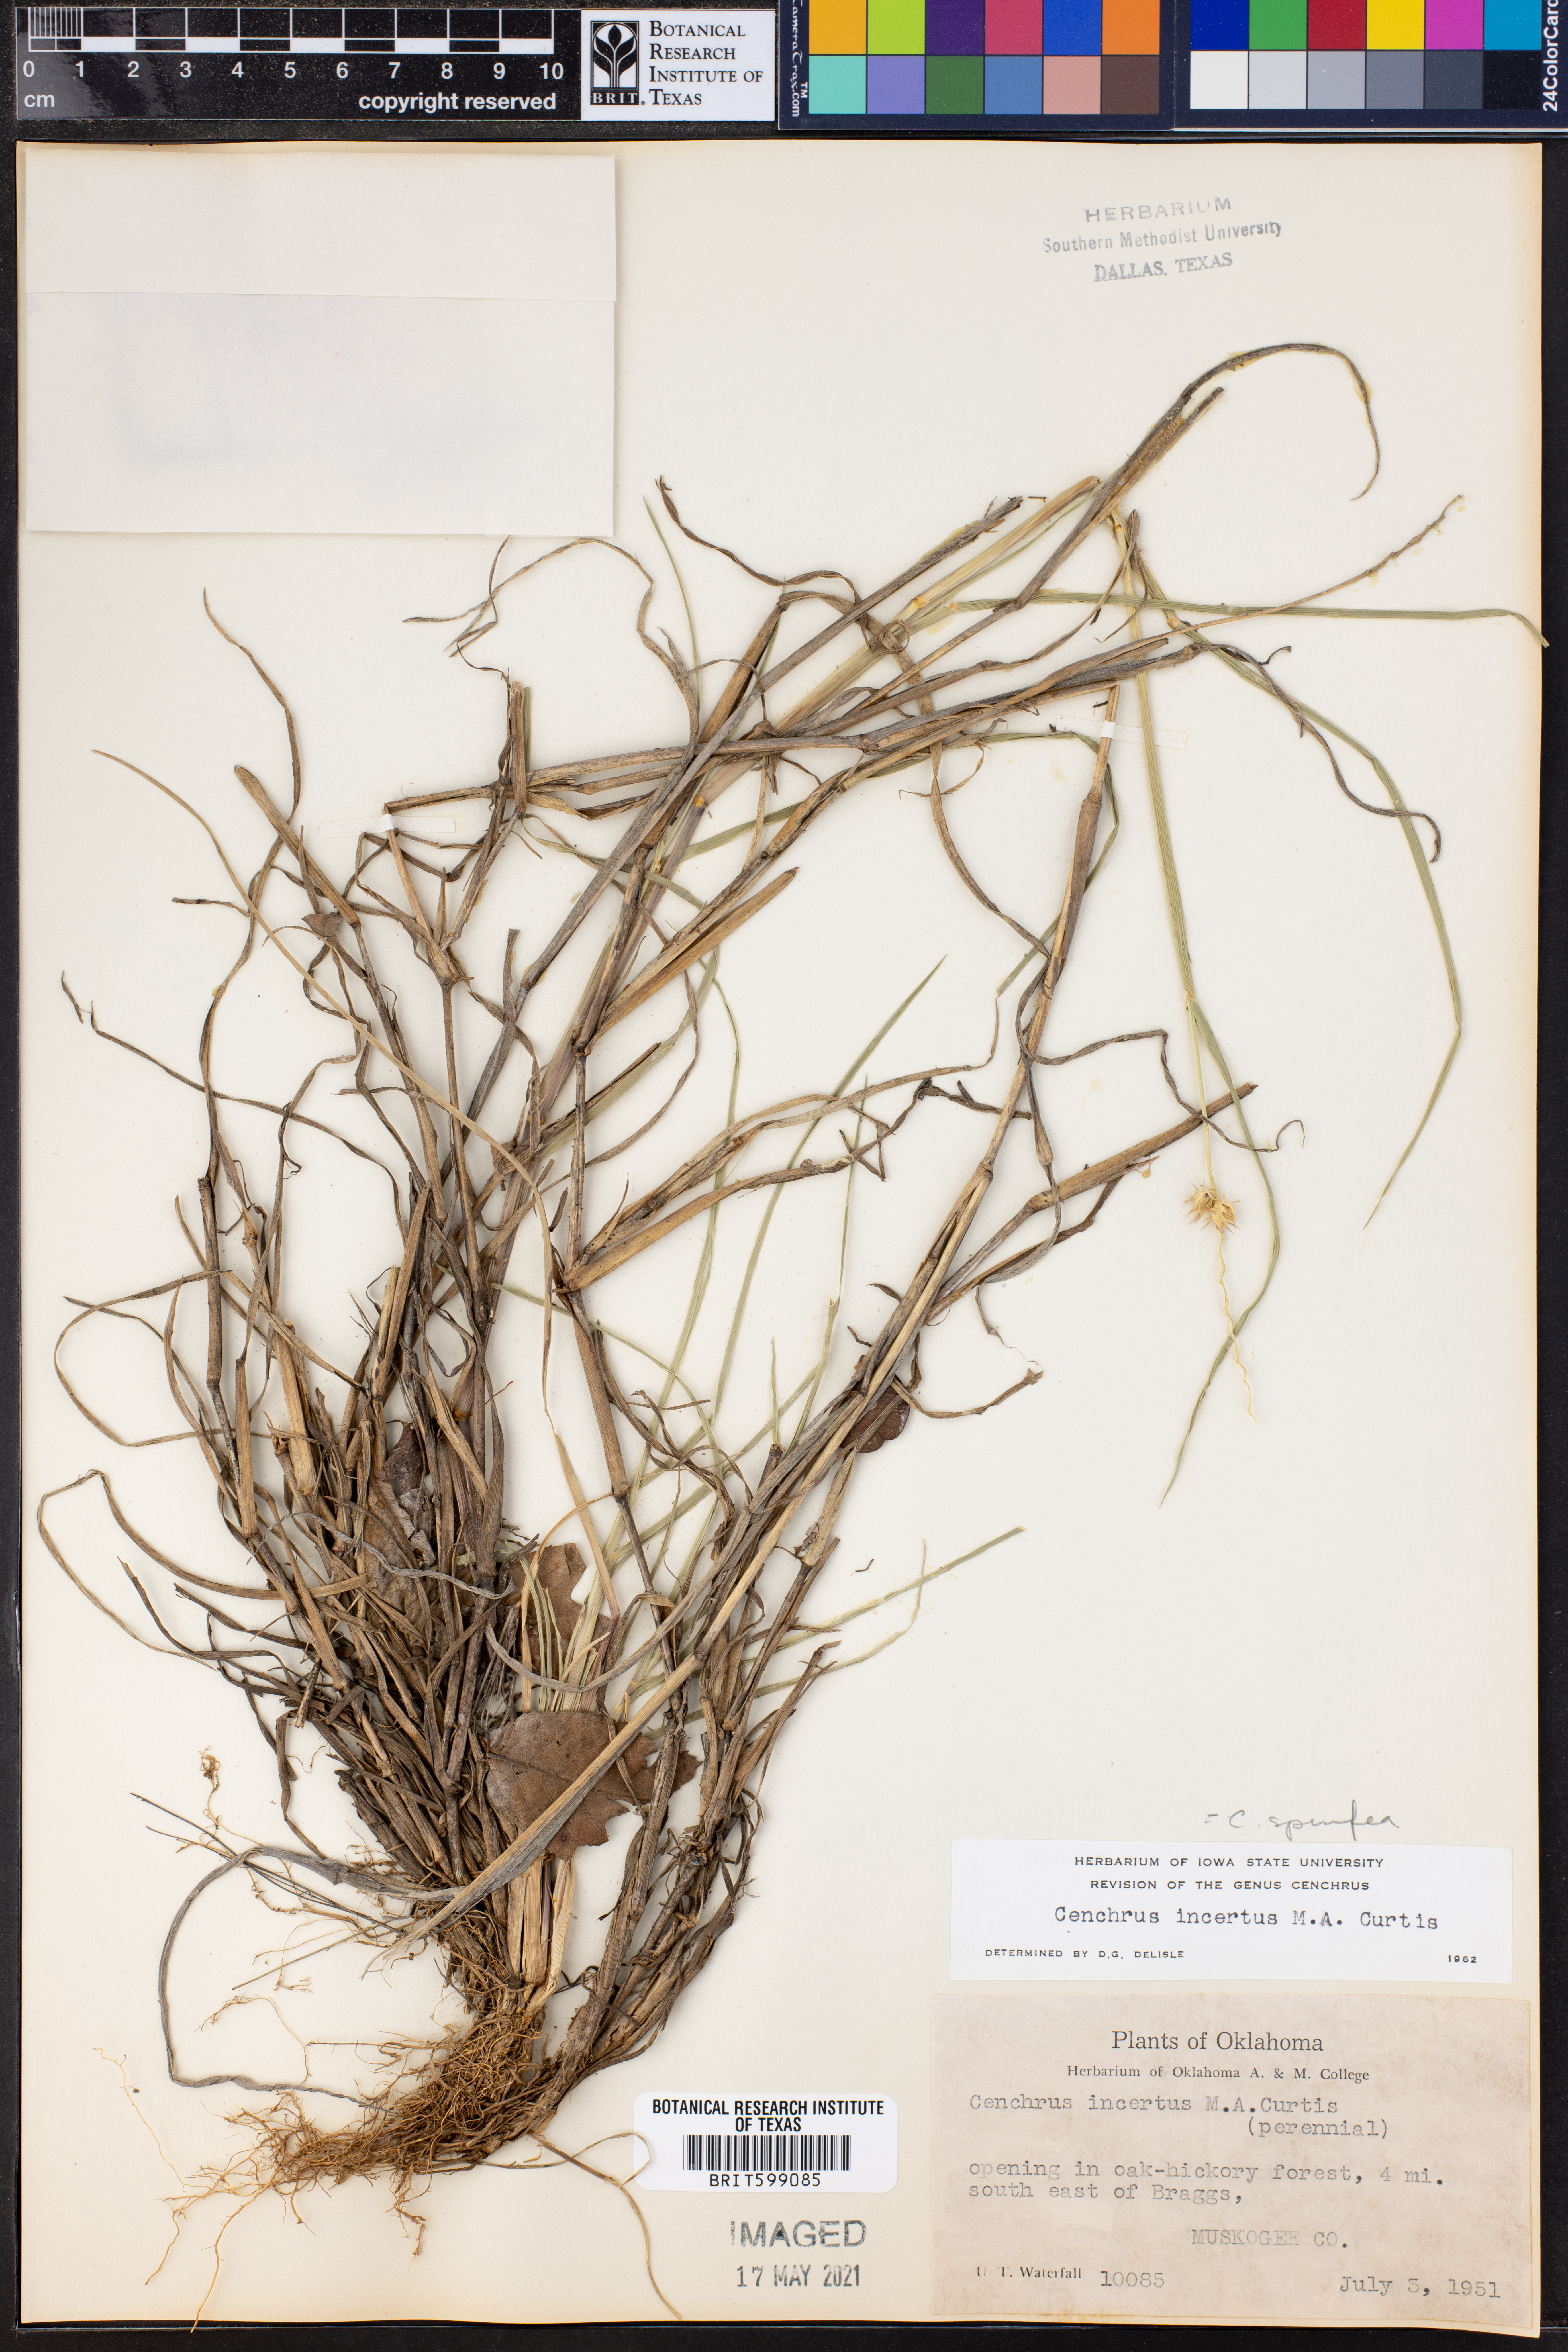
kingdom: Plantae
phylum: Tracheophyta
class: Liliopsida
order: Poales
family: Poaceae
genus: Cenchrus
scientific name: Cenchrus spinifex
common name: Coast sandbur
